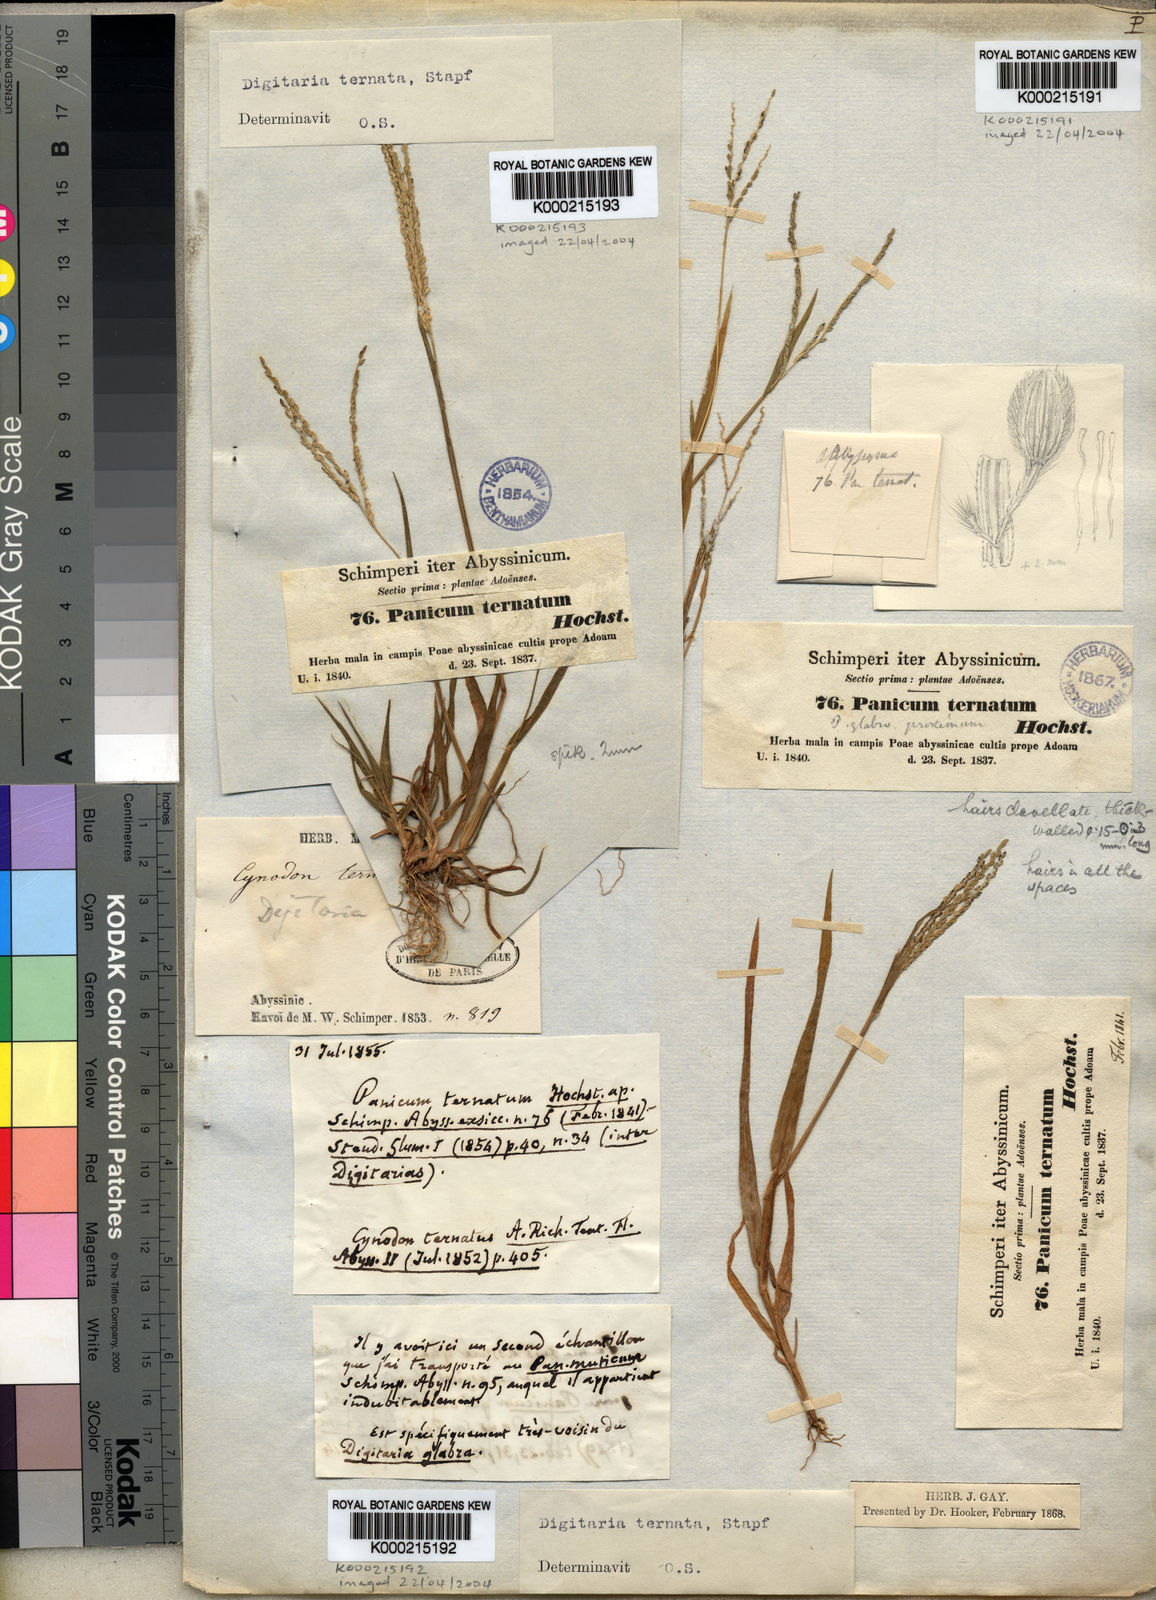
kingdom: Plantae
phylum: Tracheophyta
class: Liliopsida
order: Poales
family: Poaceae
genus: Digitaria
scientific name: Digitaria ternata
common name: Blackseed crabgrass
